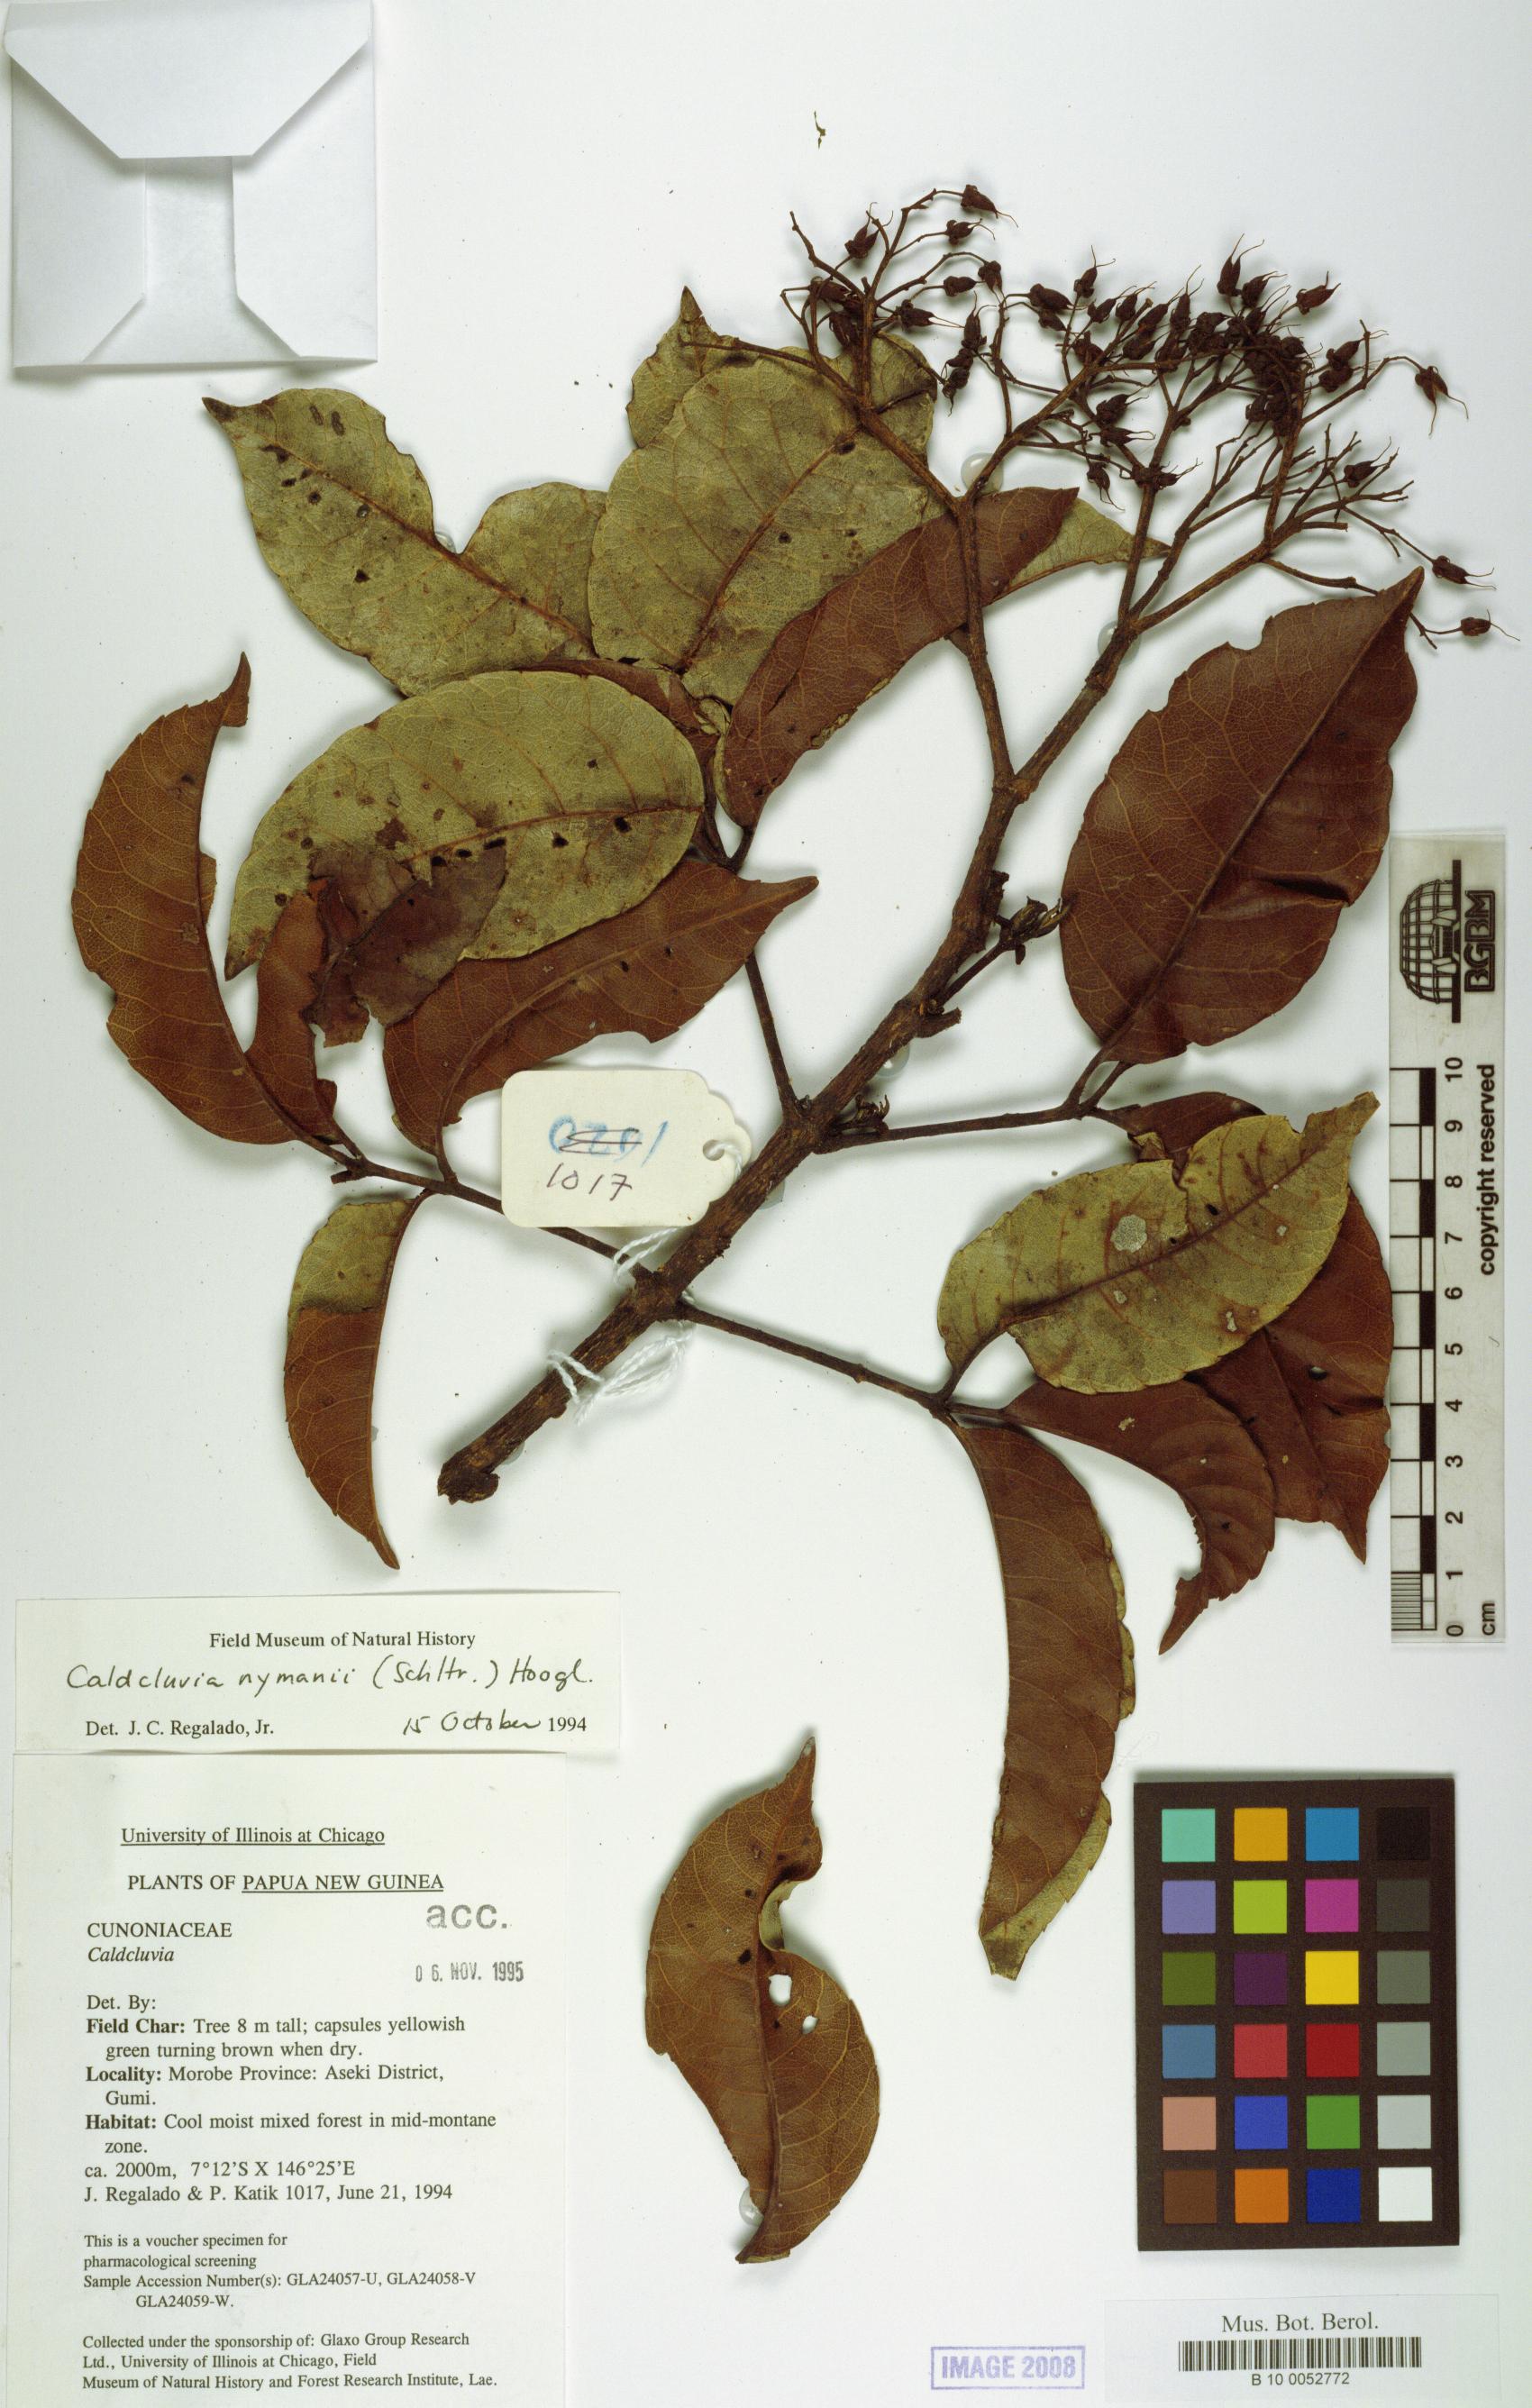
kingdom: Plantae
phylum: Tracheophyta
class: Magnoliopsida
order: Oxalidales
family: Cunoniaceae
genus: Opocunonia
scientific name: Opocunonia nymanii
